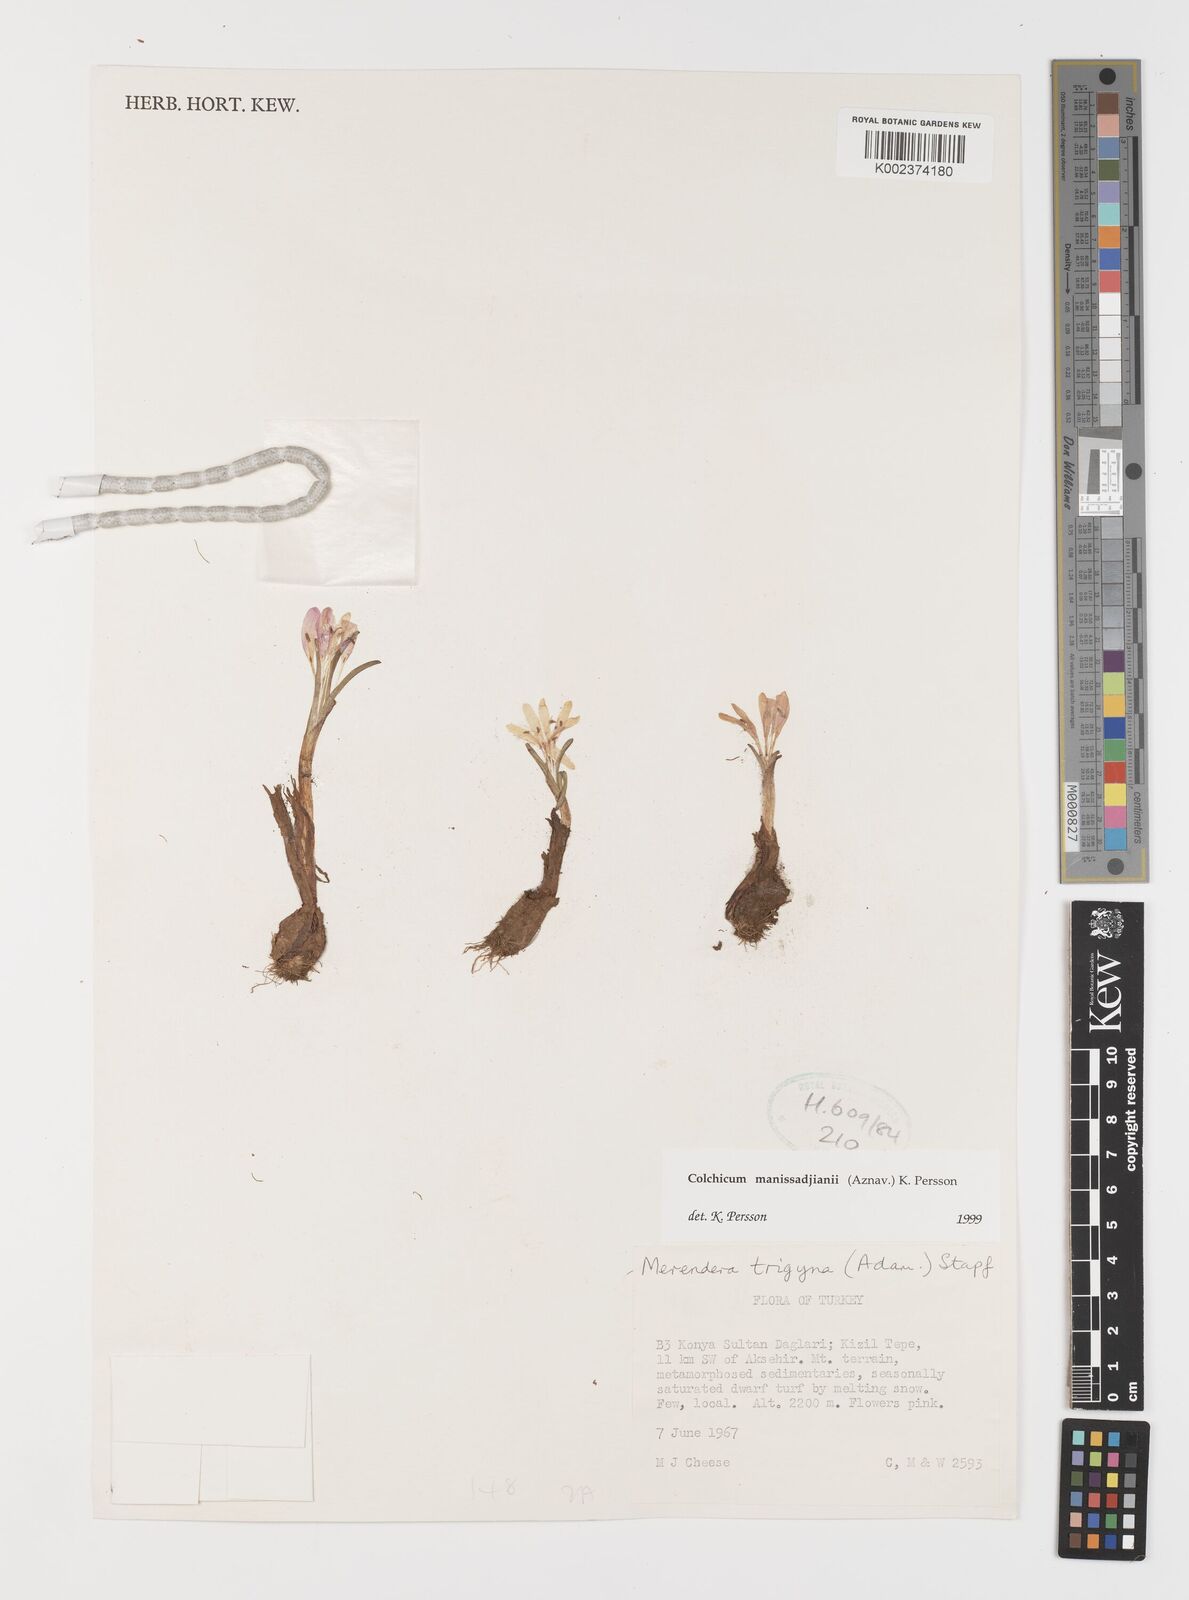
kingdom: Plantae
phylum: Tracheophyta
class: Liliopsida
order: Liliales
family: Colchicaceae
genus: Colchicum
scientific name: Colchicum manissadjianii
